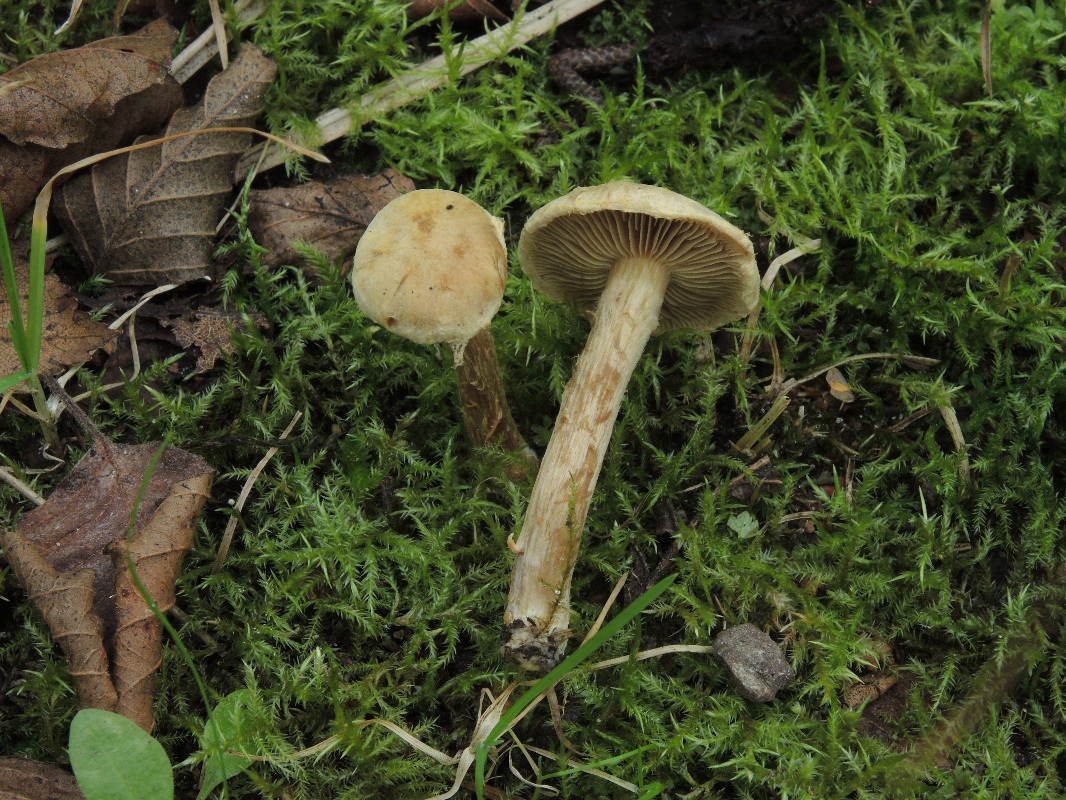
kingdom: Fungi
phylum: Basidiomycota
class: Agaricomycetes
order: Agaricales
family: Inocybaceae
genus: Mallocybe
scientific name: Mallocybe agardhii
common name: Agardhs trævlhat
